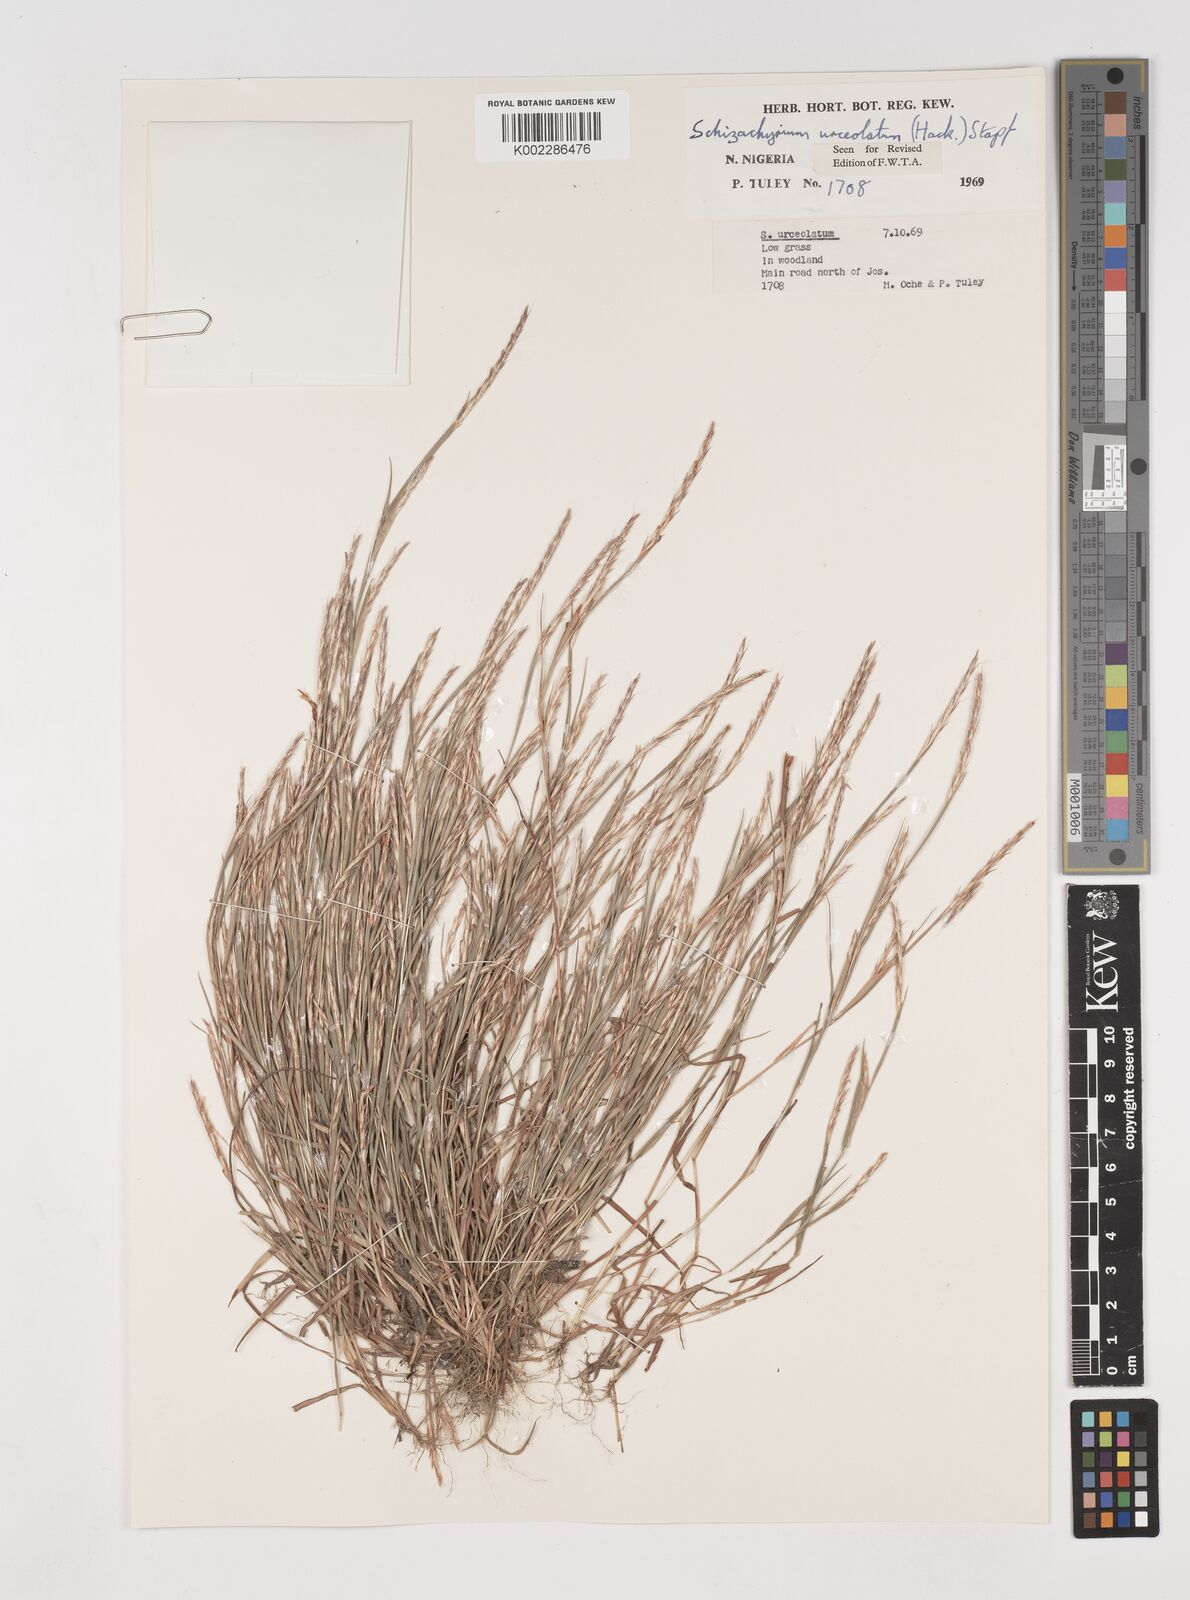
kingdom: Plantae
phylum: Tracheophyta
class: Liliopsida
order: Poales
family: Poaceae
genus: Schizachyrium
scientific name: Schizachyrium urceolatum
